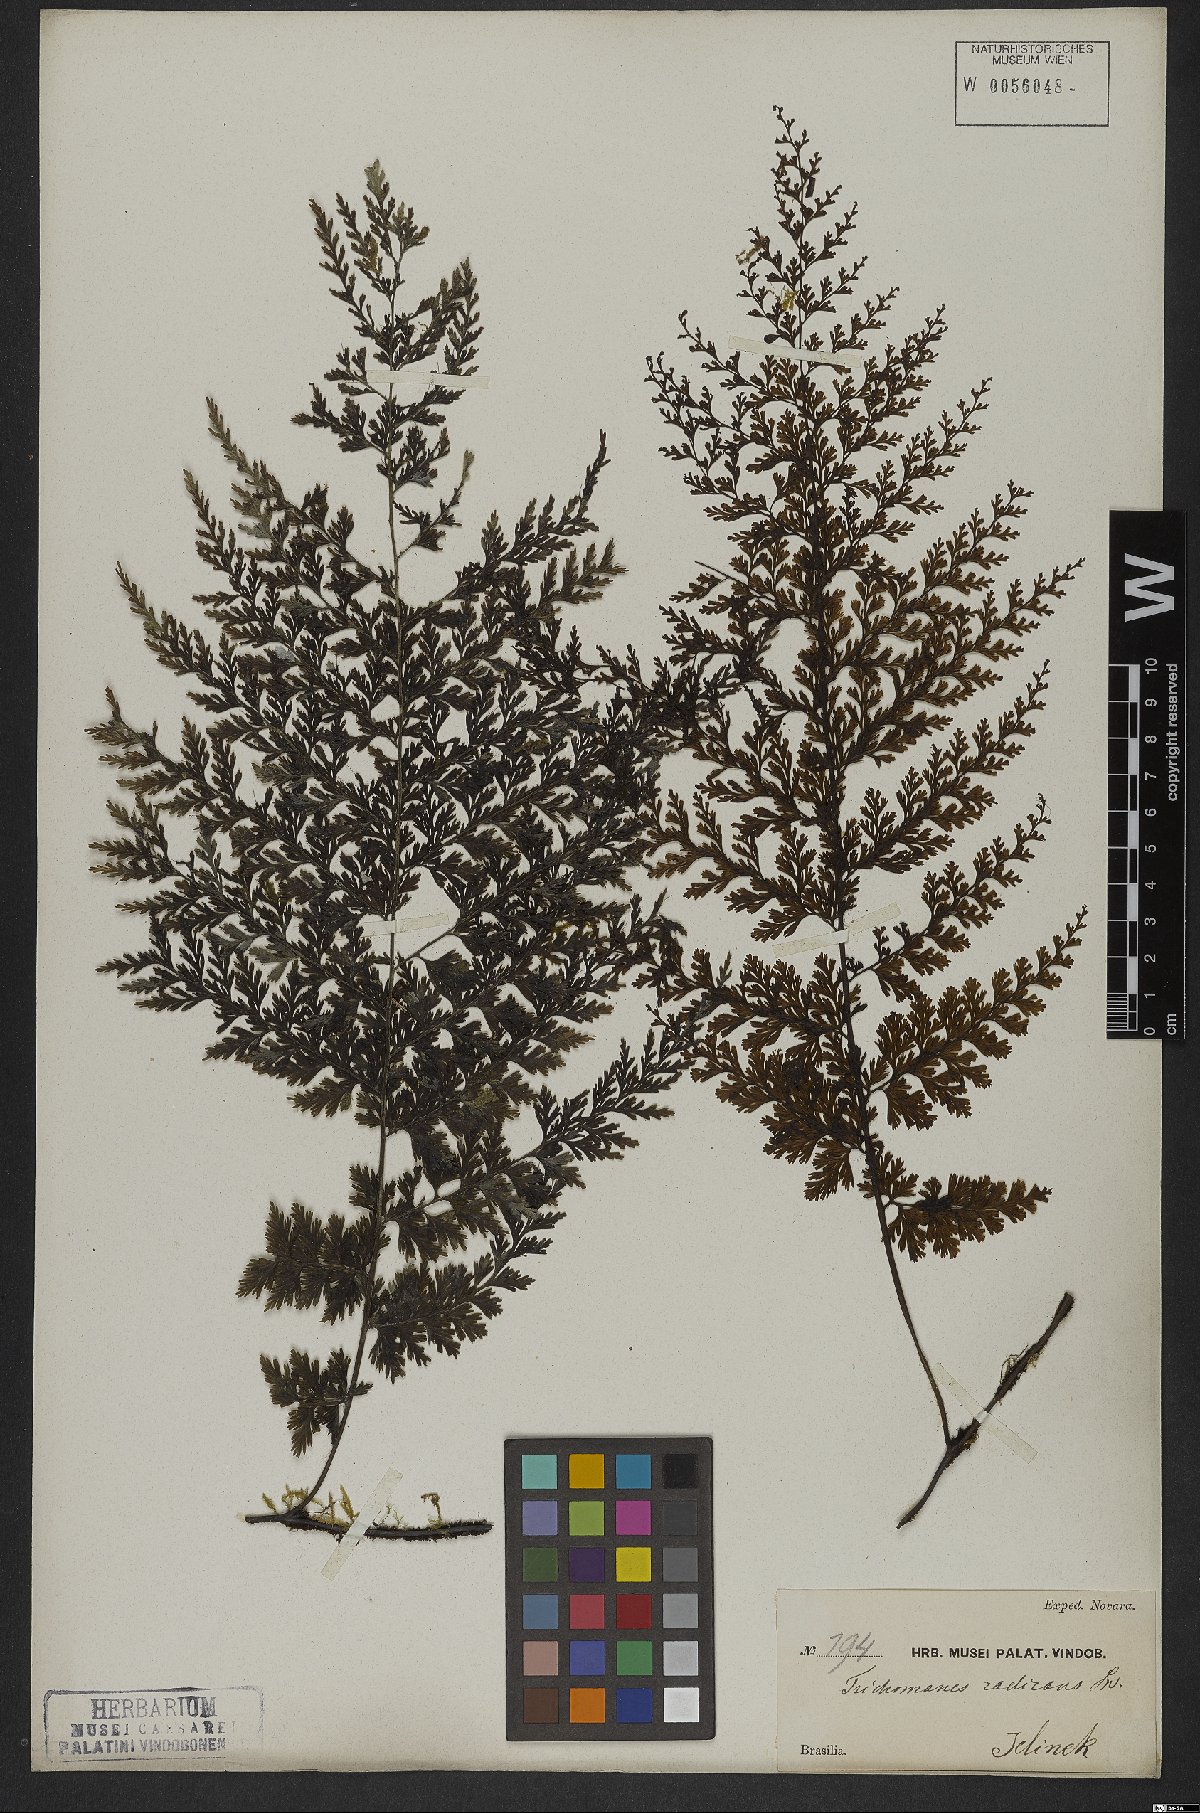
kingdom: Plantae
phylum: Tracheophyta
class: Polypodiopsida
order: Hymenophyllales
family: Hymenophyllaceae
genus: Vandenboschia
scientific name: Vandenboschia radicans
